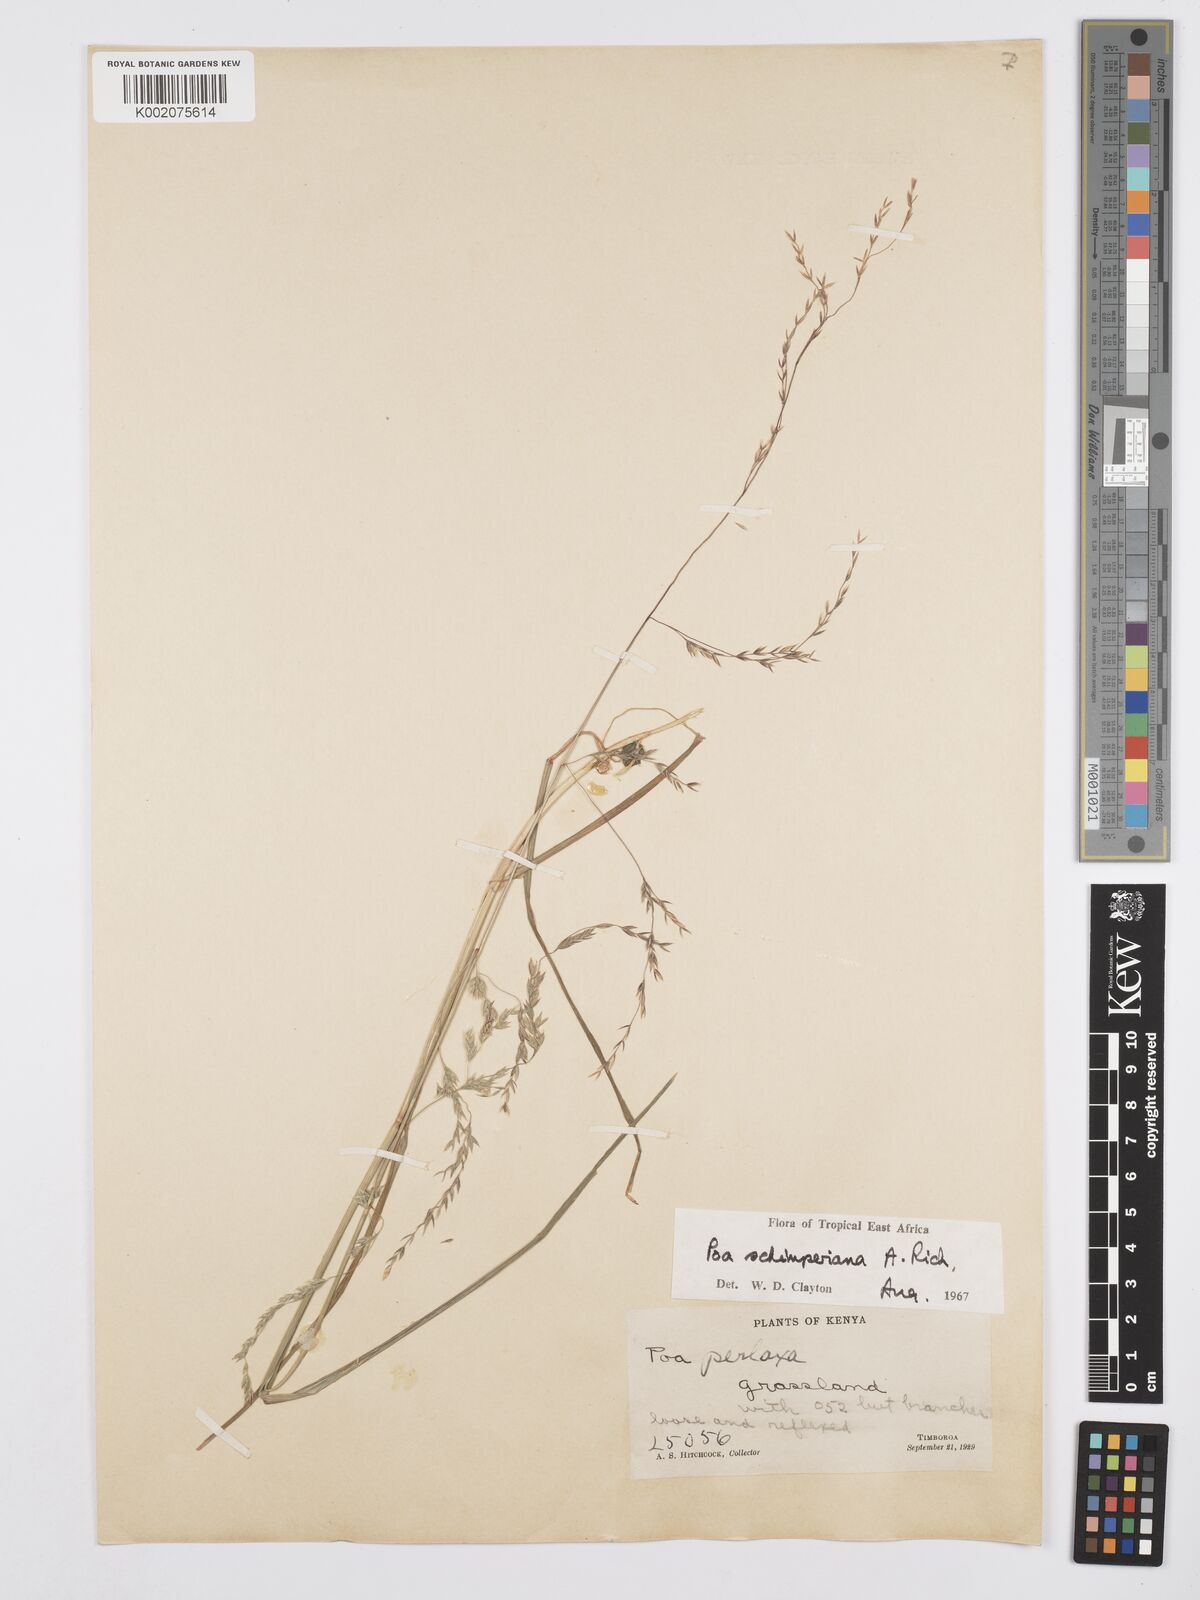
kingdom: Plantae
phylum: Tracheophyta
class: Liliopsida
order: Poales
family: Poaceae
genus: Poa
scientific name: Poa schimperiana
